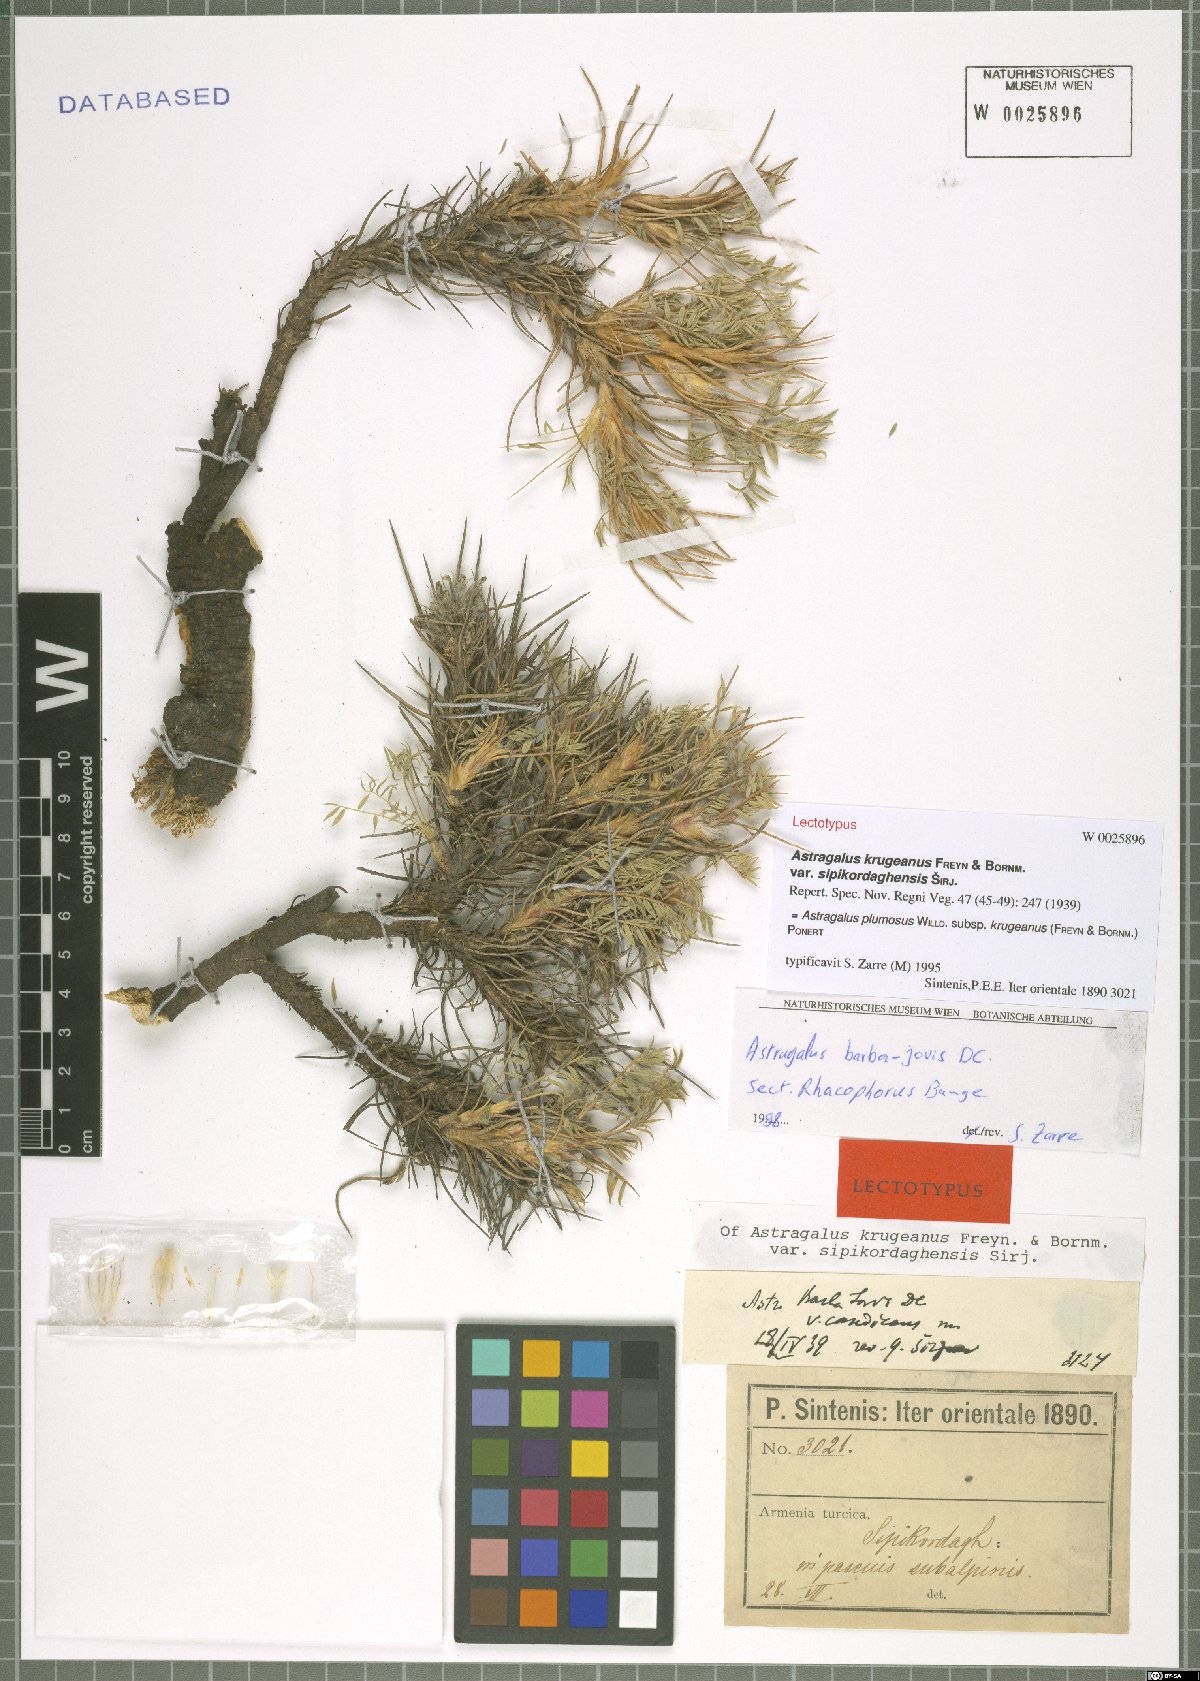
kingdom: Plantae
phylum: Tracheophyta
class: Magnoliopsida
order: Fabales
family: Fabaceae
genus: Astragalus
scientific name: Astragalus plumosus
